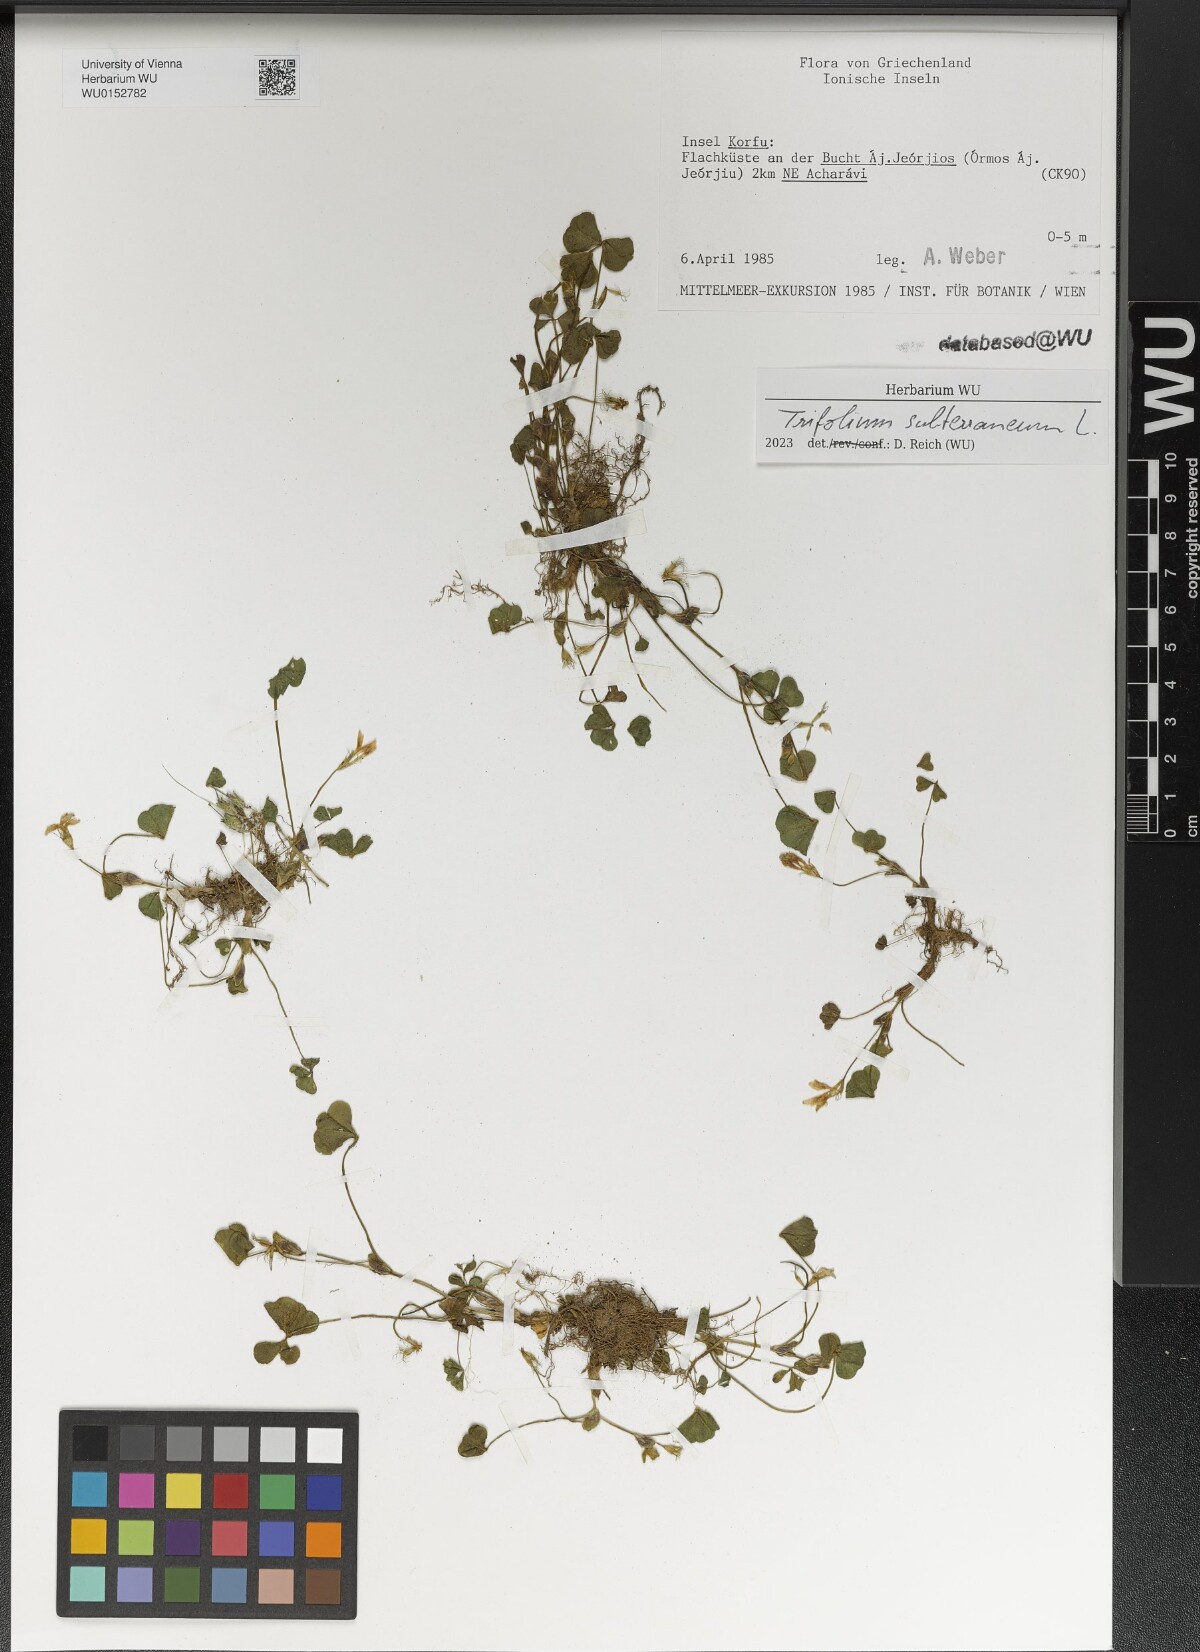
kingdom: Plantae
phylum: Tracheophyta
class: Magnoliopsida
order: Fabales
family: Fabaceae
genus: Trifolium
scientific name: Trifolium subterraneum
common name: Subterranean clover
